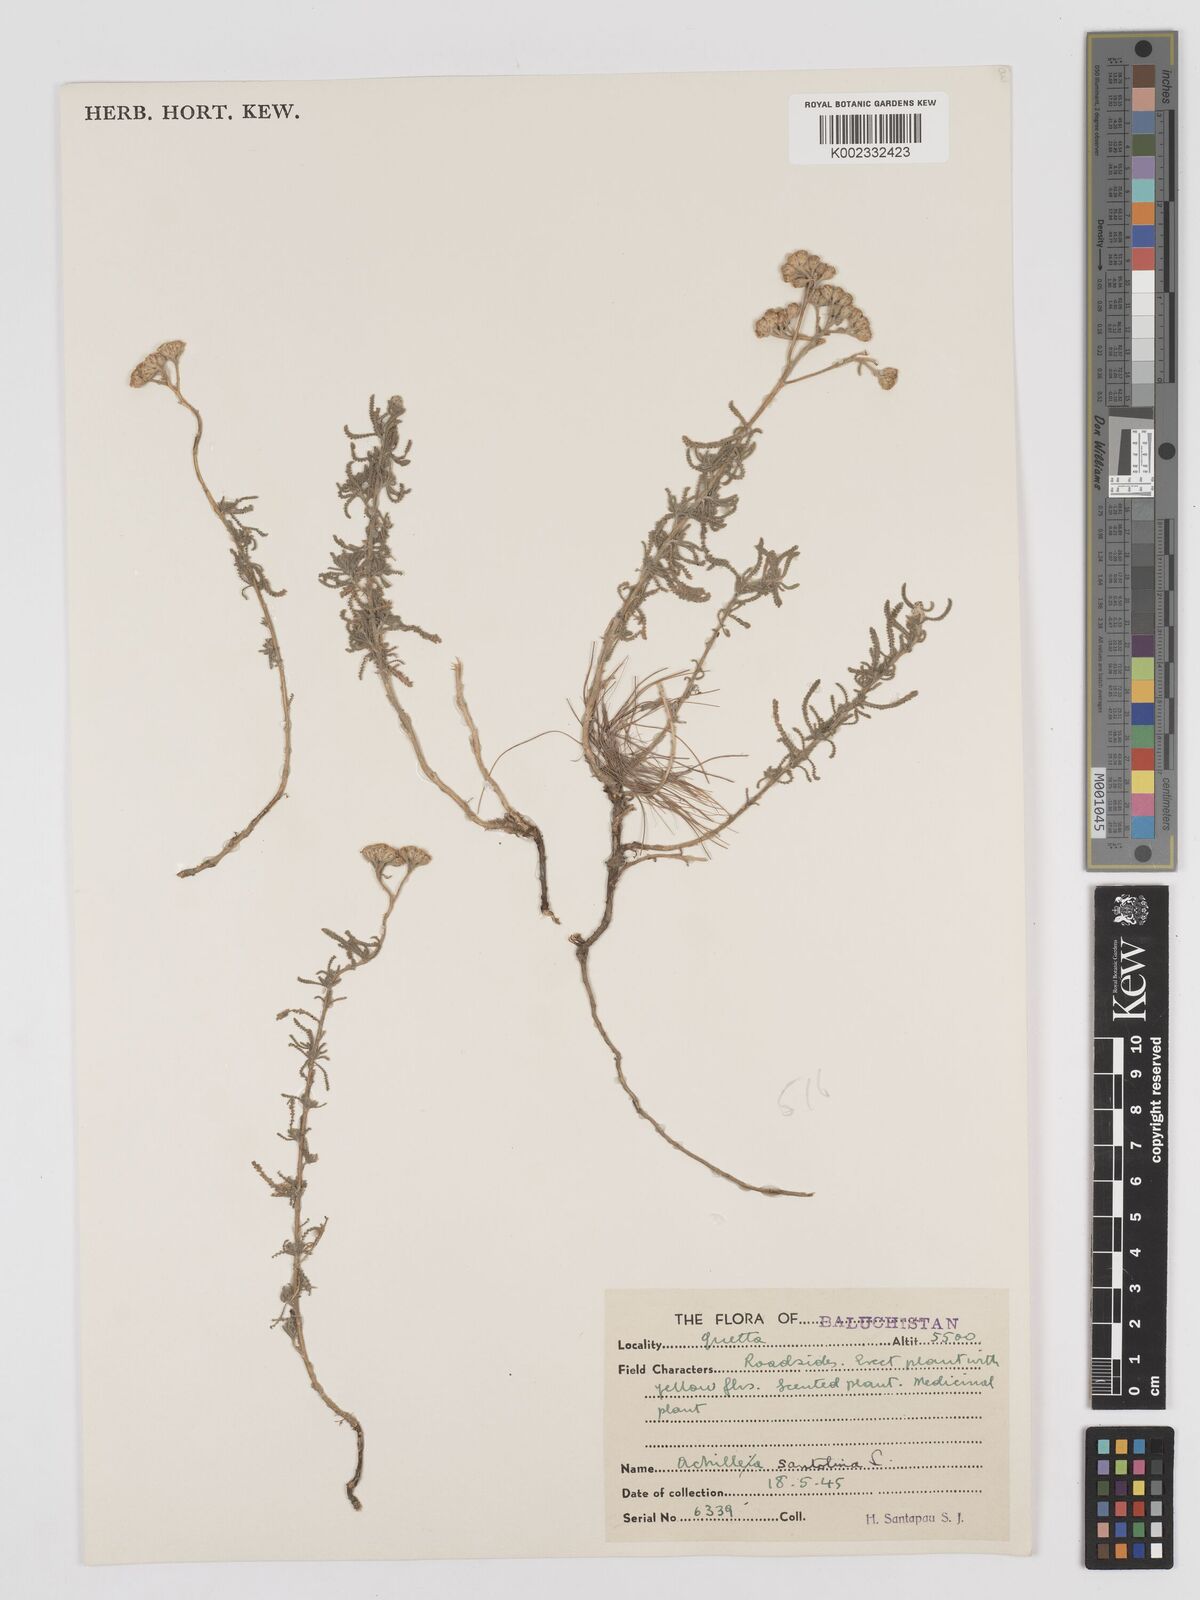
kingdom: Plantae
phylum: Tracheophyta
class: Magnoliopsida
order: Asterales
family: Asteraceae
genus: Achillea
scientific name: Achillea tenuifolia
